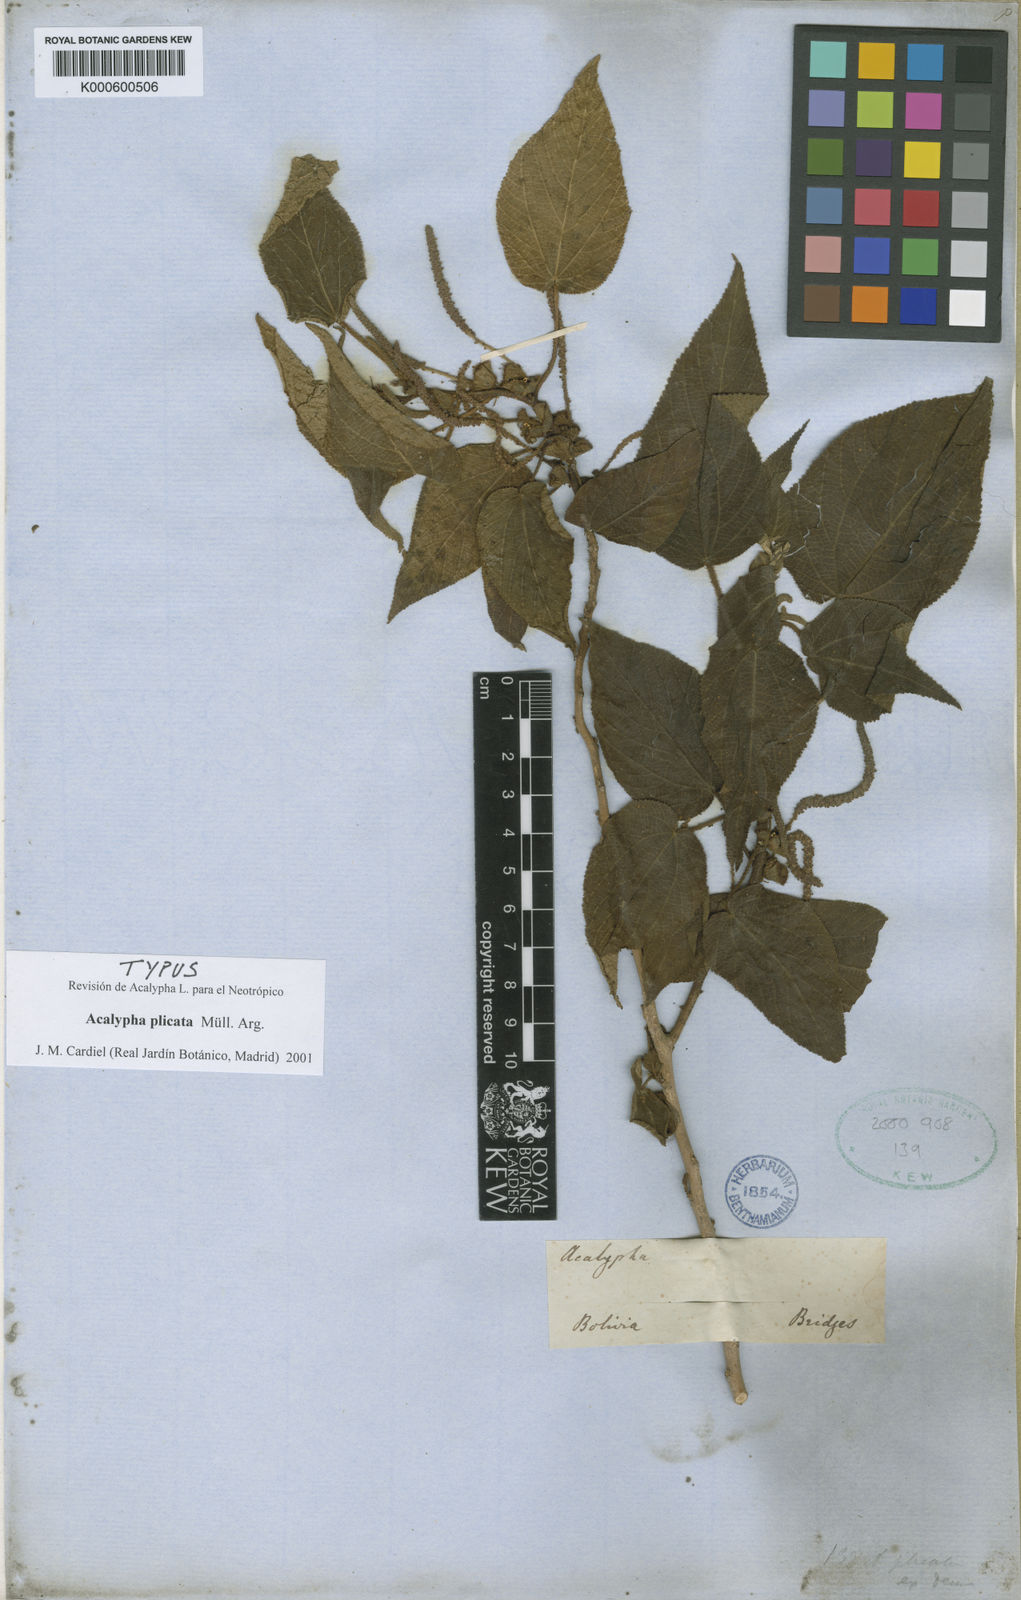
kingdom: Plantae
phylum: Tracheophyta
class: Magnoliopsida
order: Malpighiales
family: Euphorbiaceae
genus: Acalypha
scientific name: Acalypha
